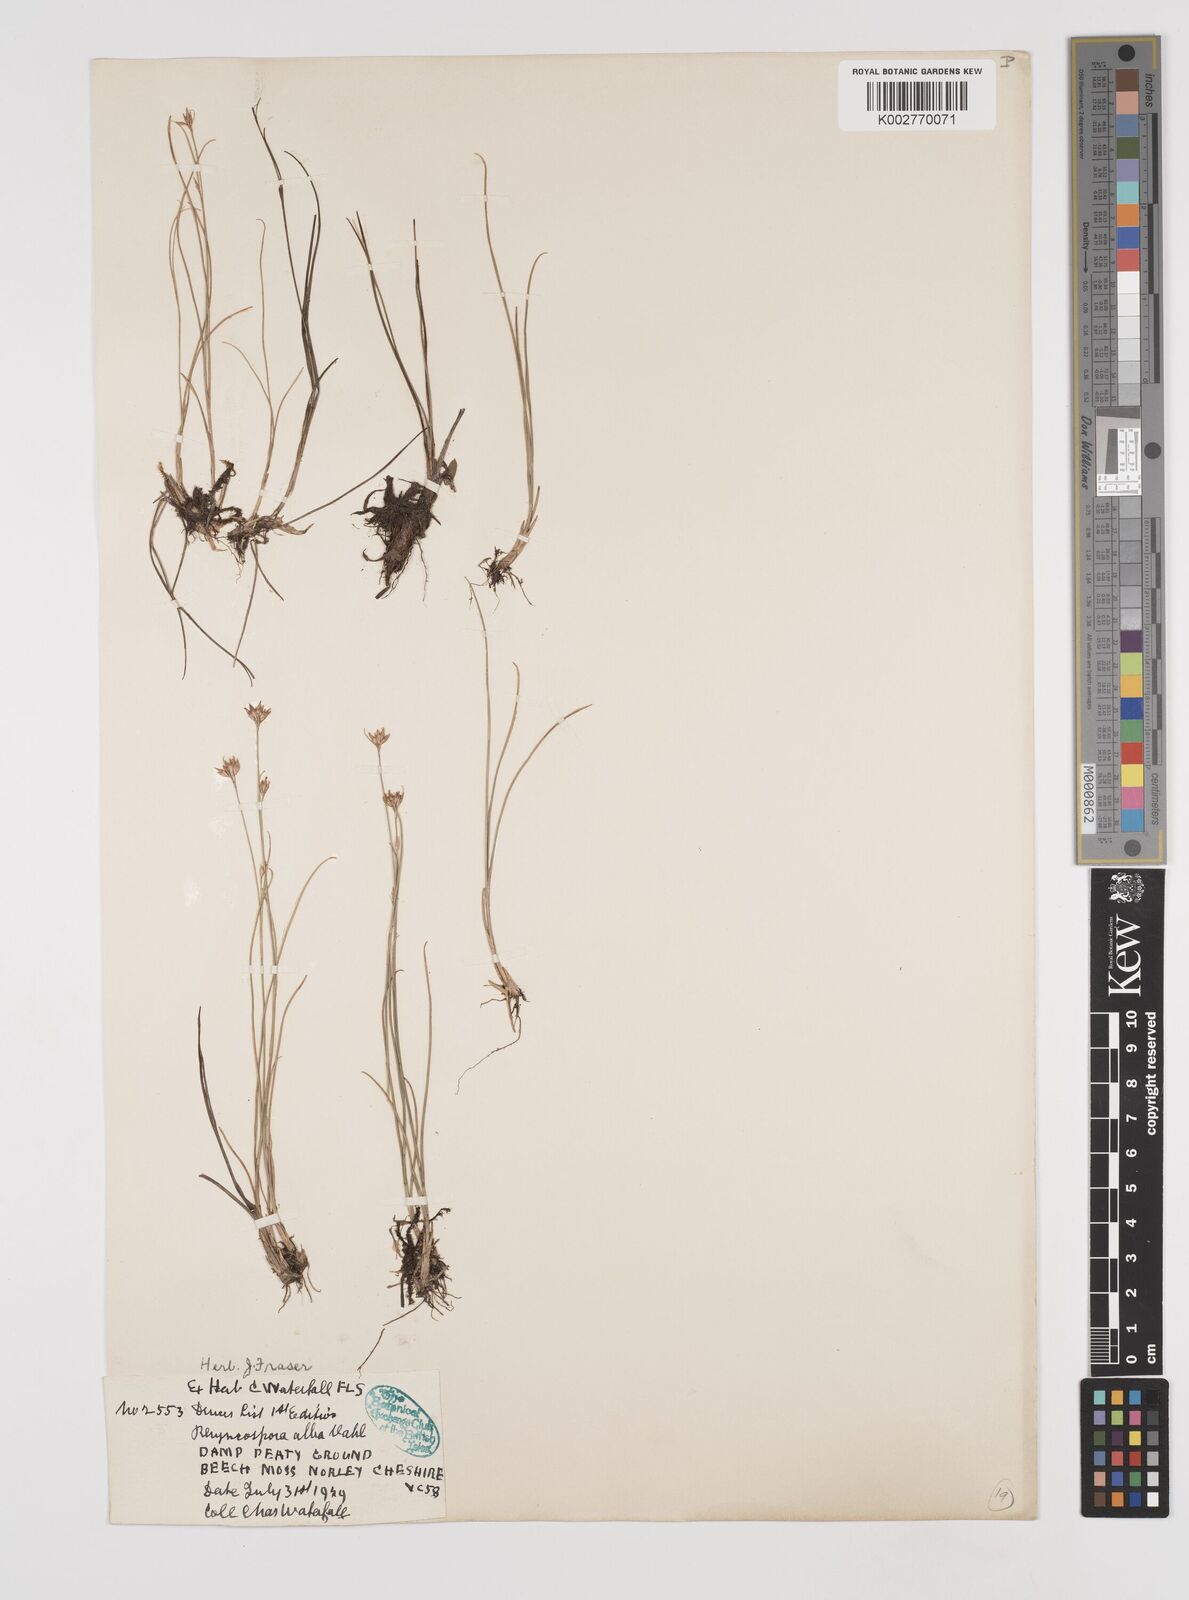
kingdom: Plantae
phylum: Tracheophyta
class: Liliopsida
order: Poales
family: Cyperaceae
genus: Rhynchospora
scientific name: Rhynchospora alba
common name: White beak-sedge
